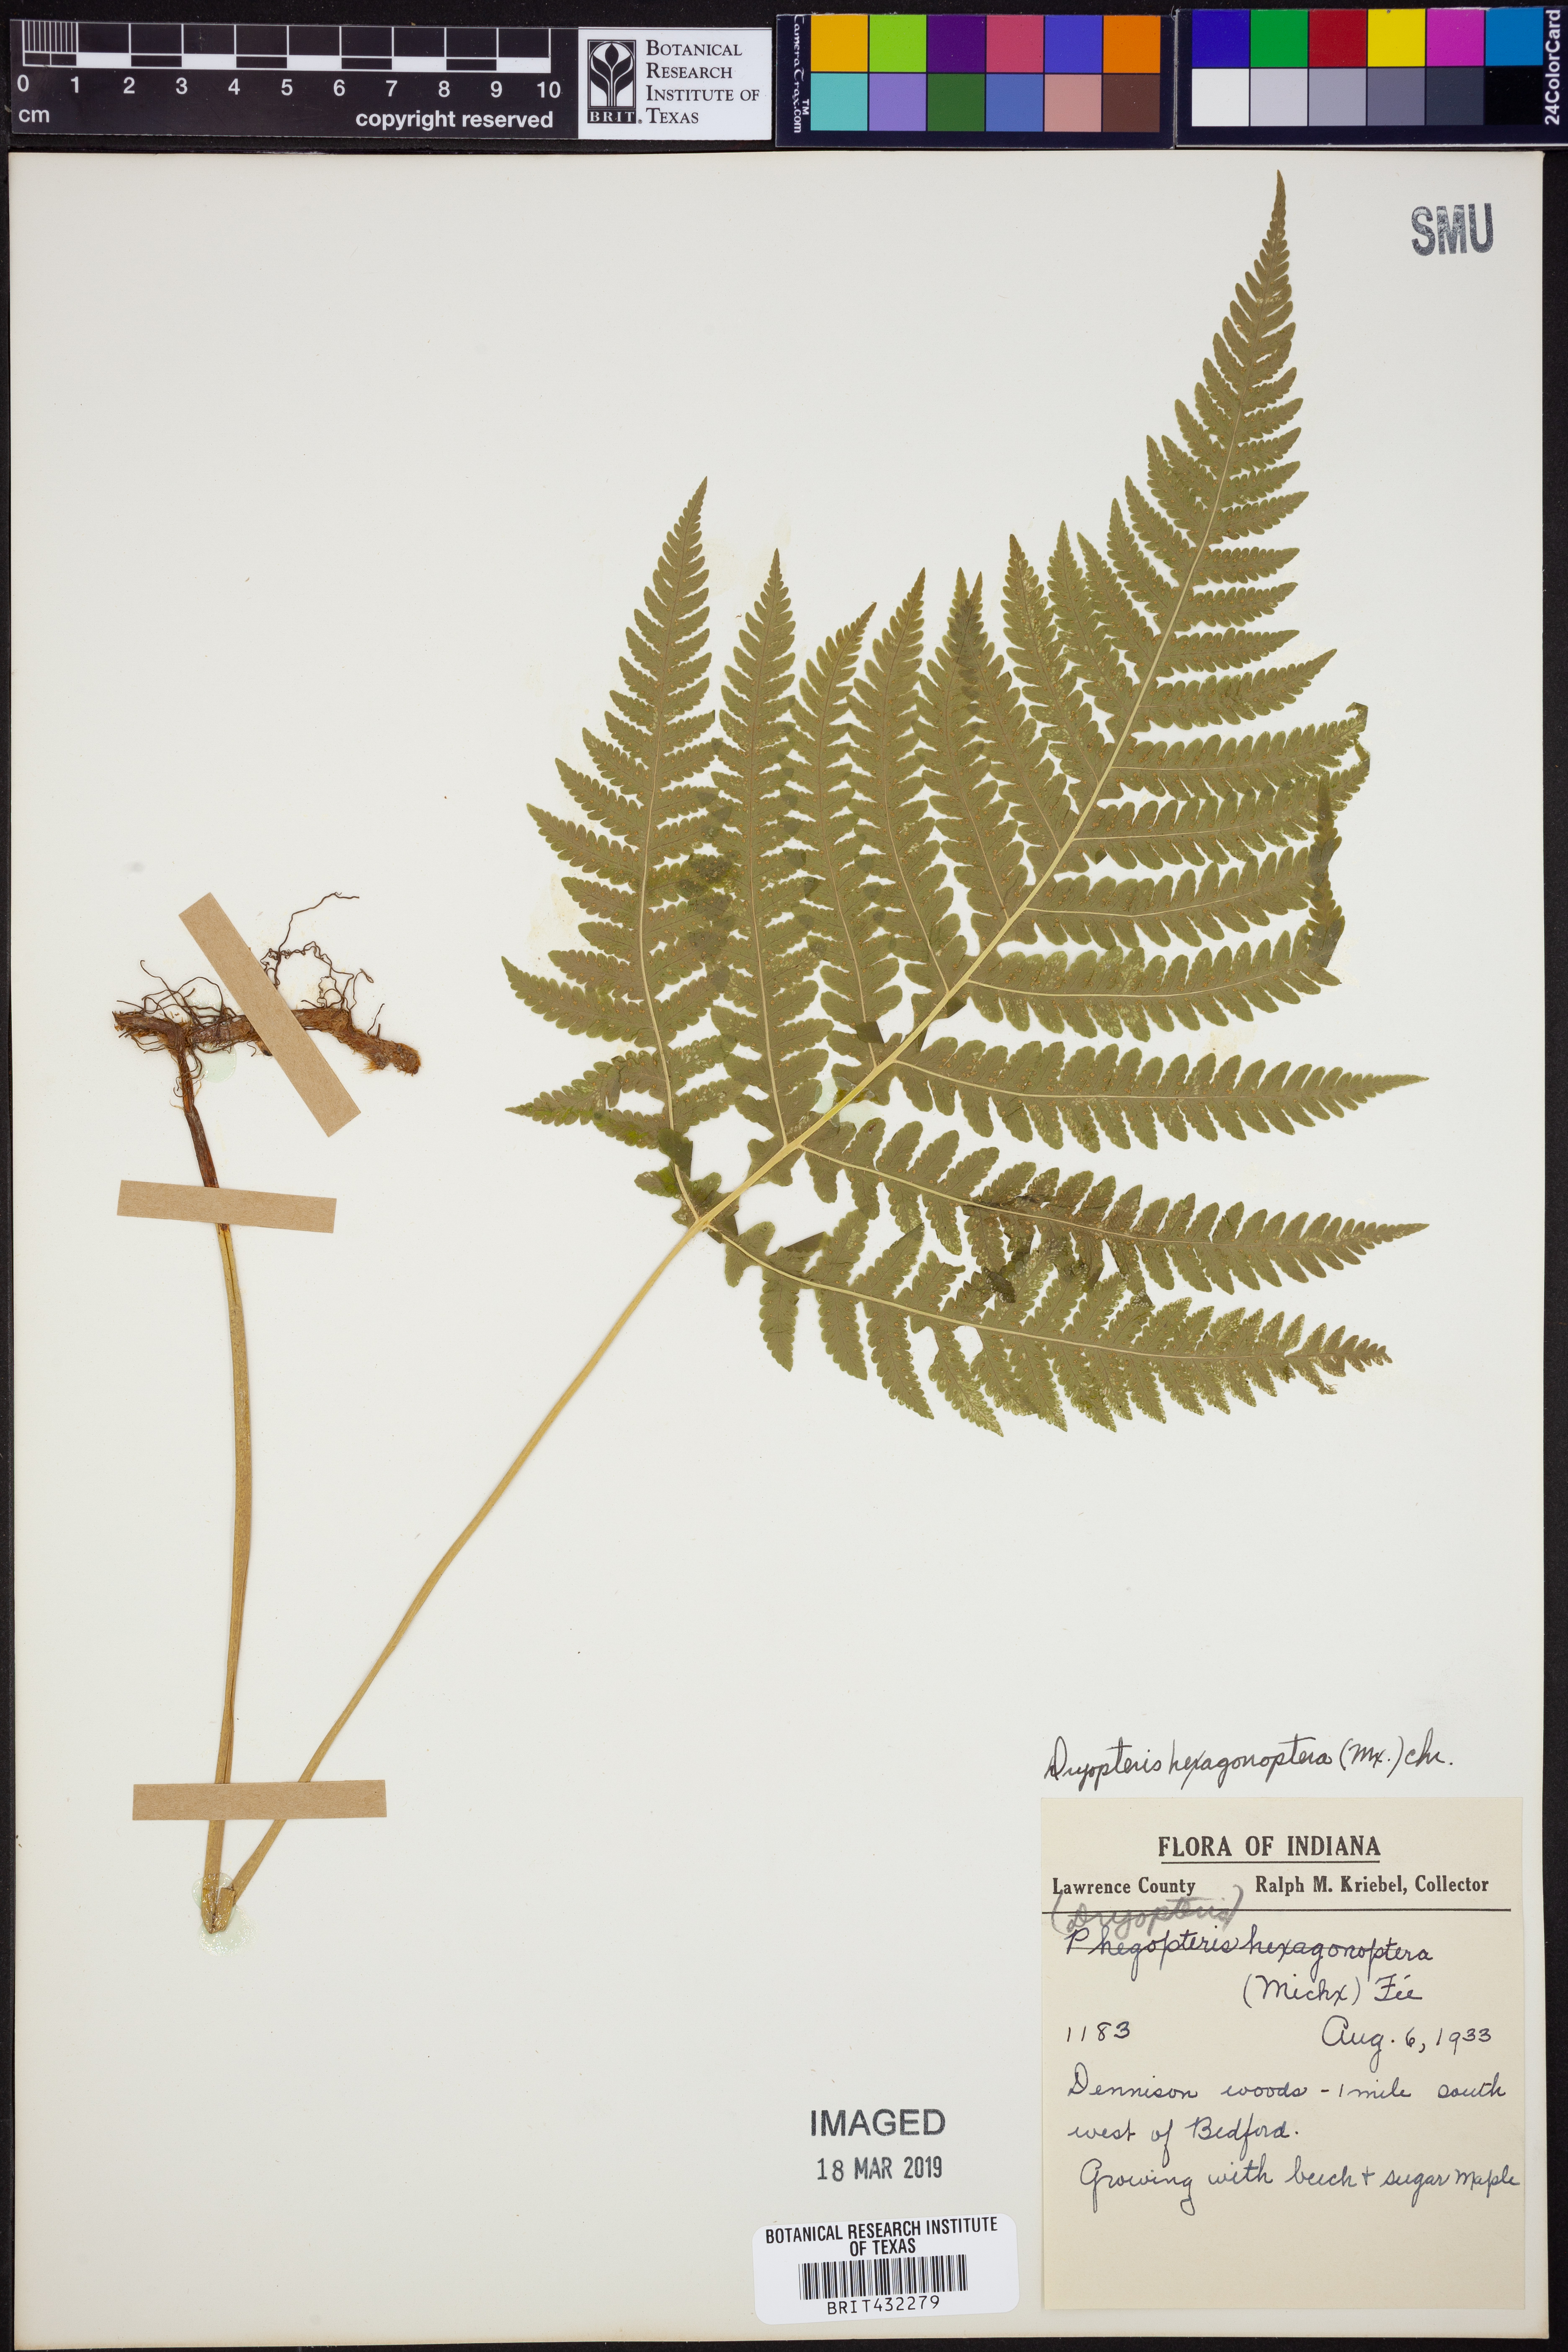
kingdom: Plantae
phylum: Tracheophyta
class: Polypodiopsida
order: Polypodiales
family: Dryopteridaceae
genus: Dryopteris
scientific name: Dryopteris hexagonaptera
